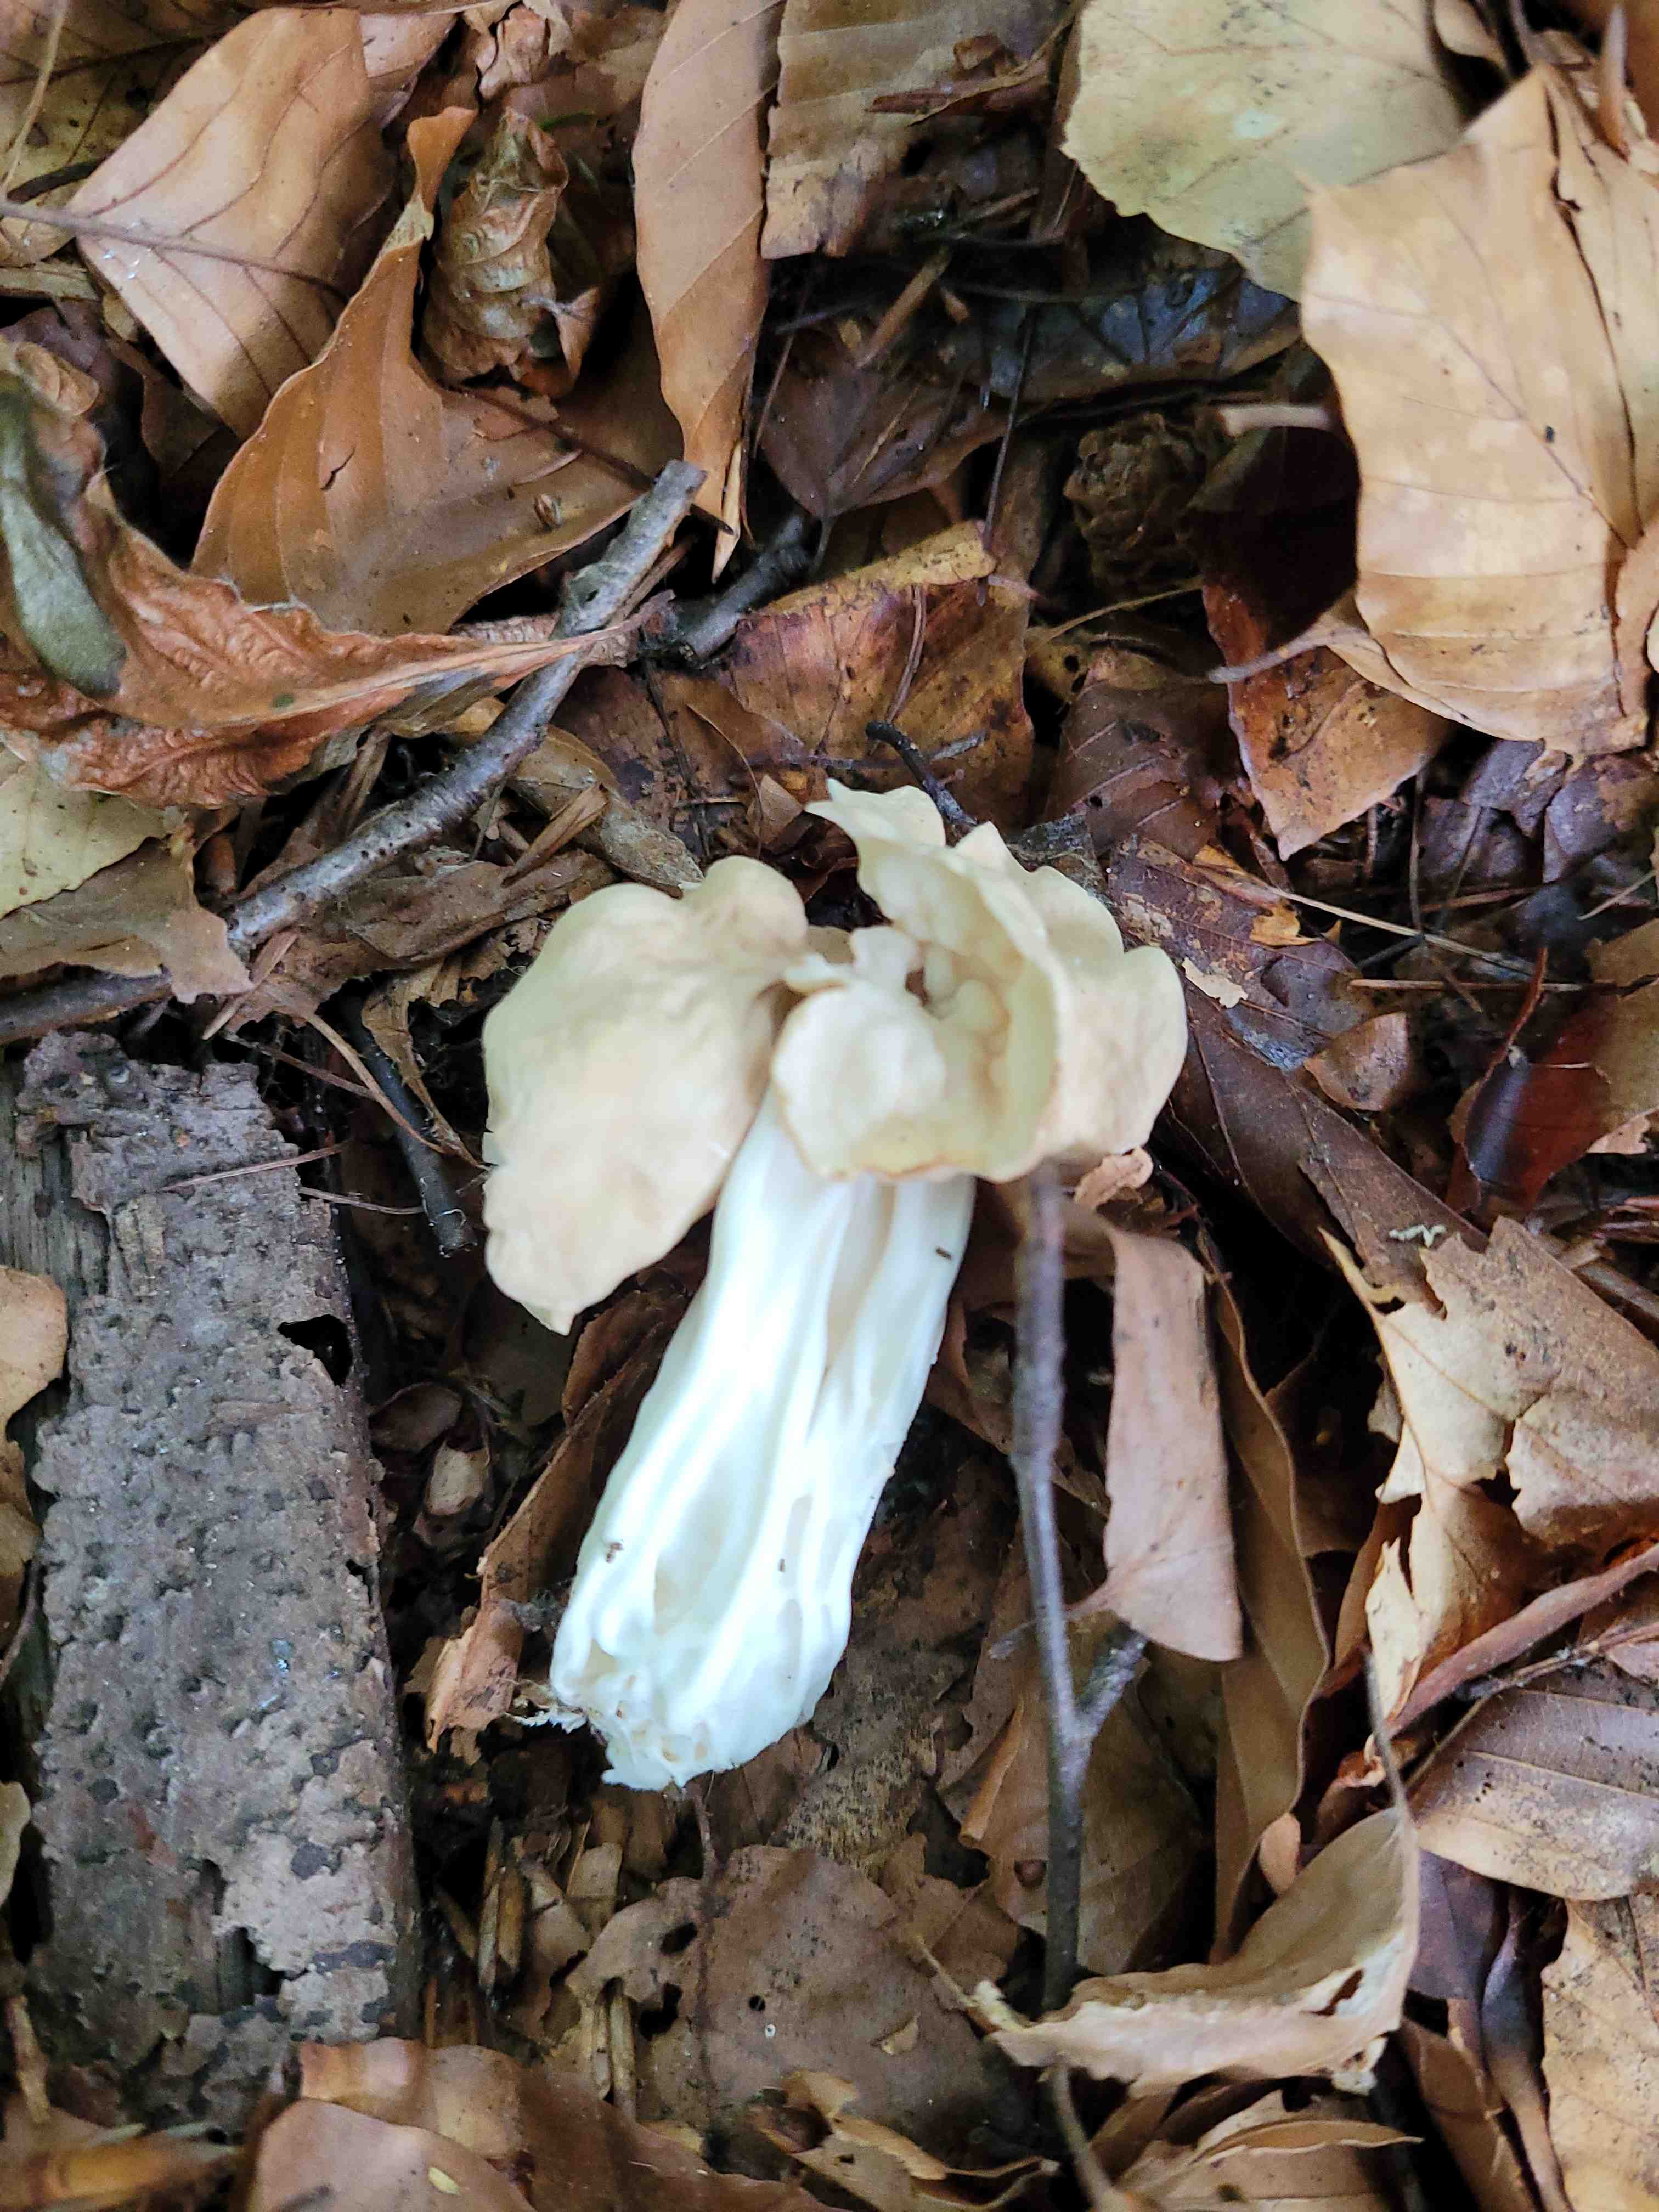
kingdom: Fungi
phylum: Ascomycota
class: Pezizomycetes
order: Pezizales
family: Helvellaceae
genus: Helvella
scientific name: Helvella crispa
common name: kruset foldhat
